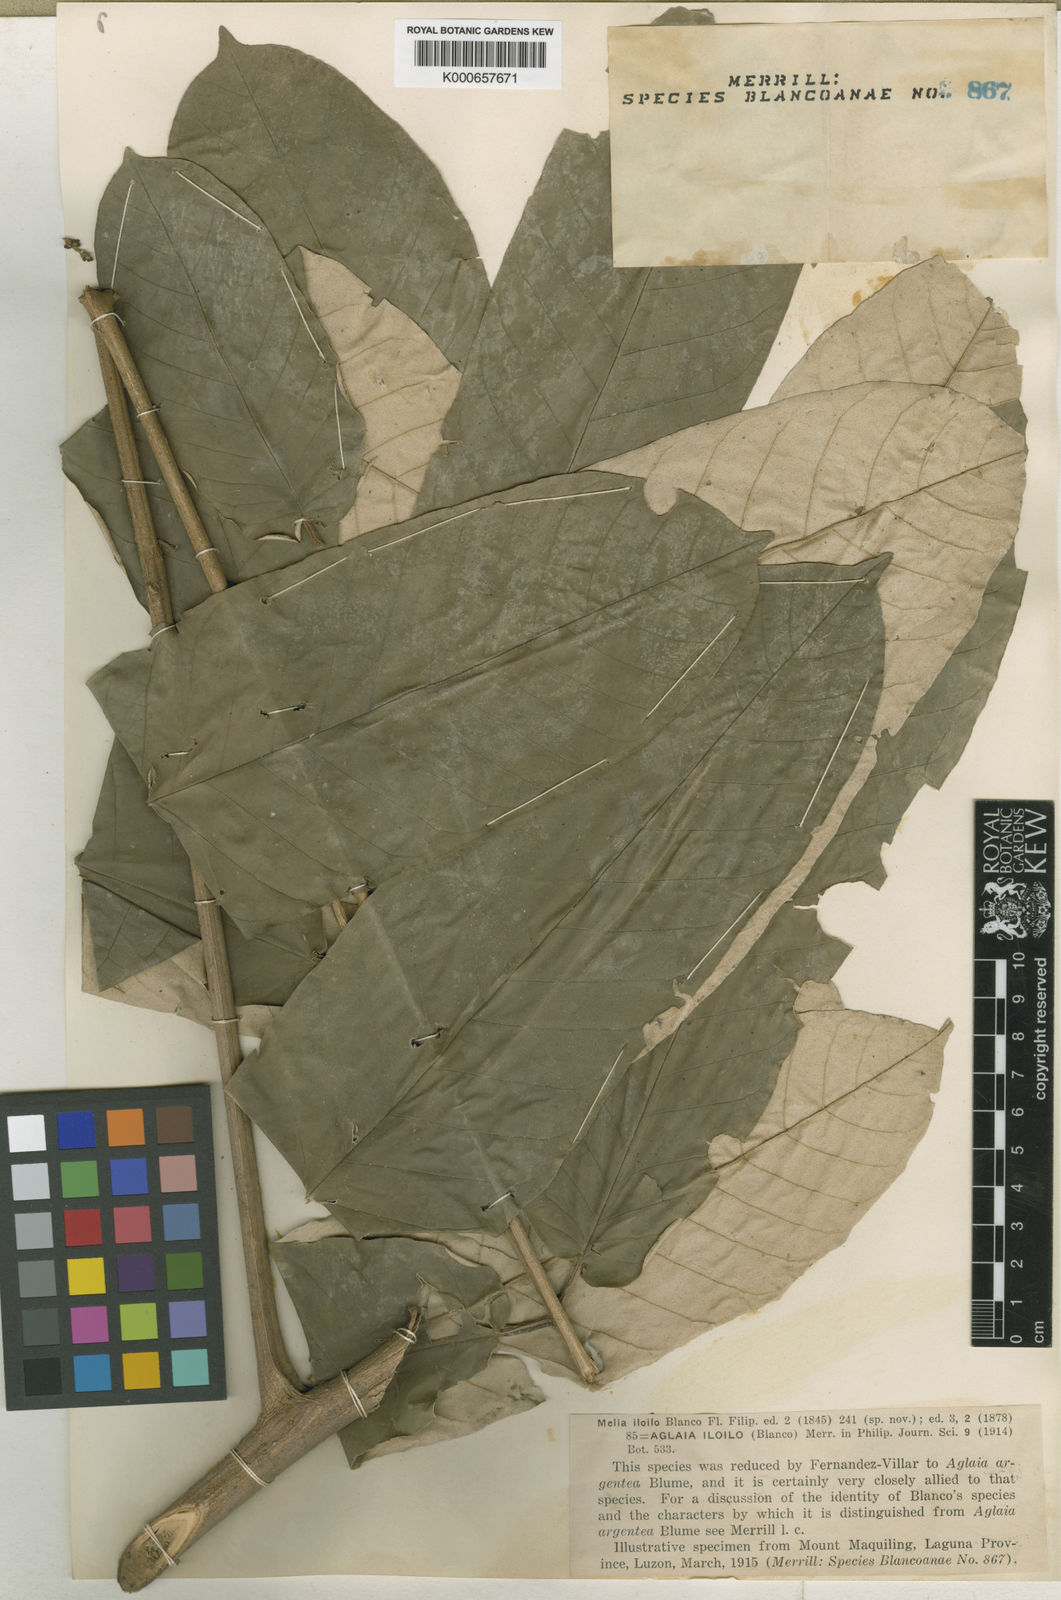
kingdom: Plantae
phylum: Tracheophyta
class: Magnoliopsida
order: Sapindales
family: Meliaceae
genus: Aglaia
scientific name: Aglaia
